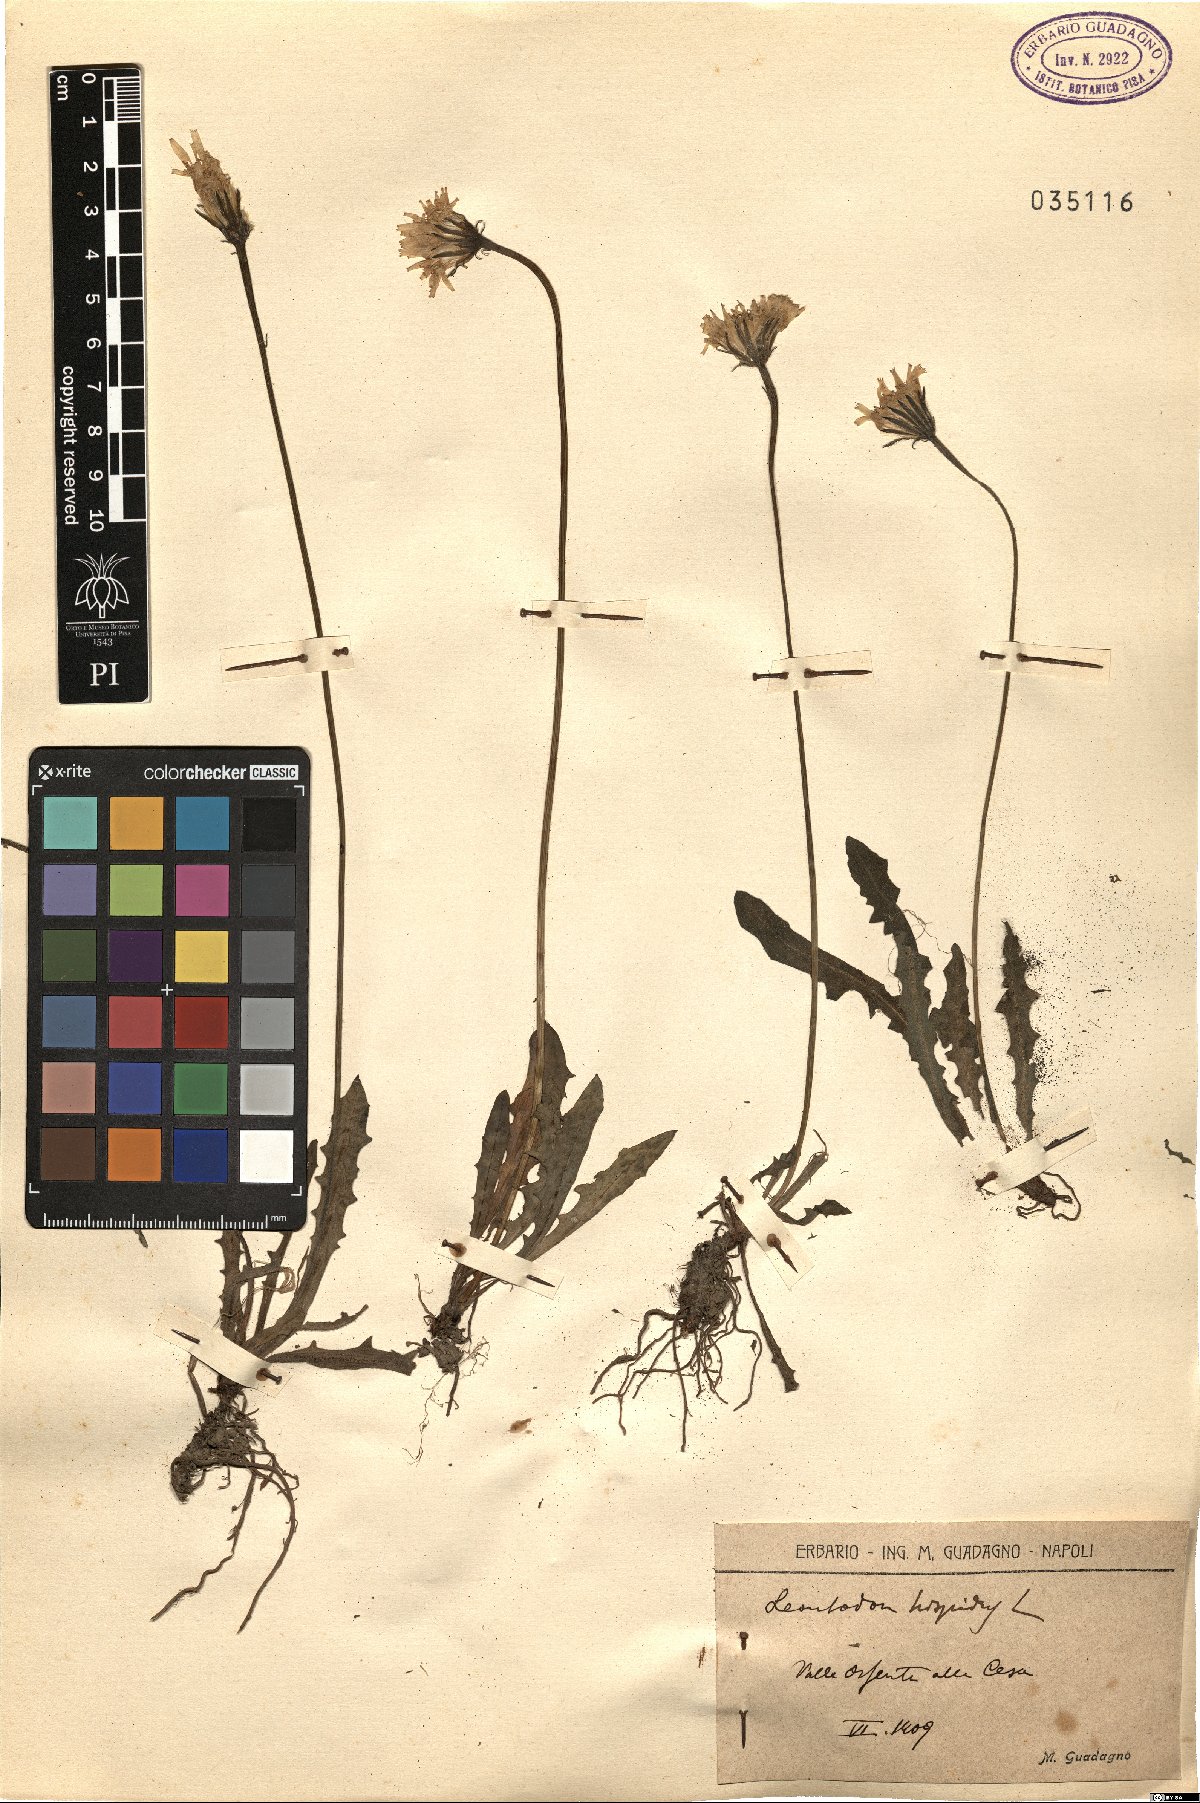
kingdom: Plantae
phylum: Tracheophyta
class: Magnoliopsida
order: Asterales
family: Asteraceae
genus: Leontodon
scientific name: Leontodon hispidus
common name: Rough hawkbit
